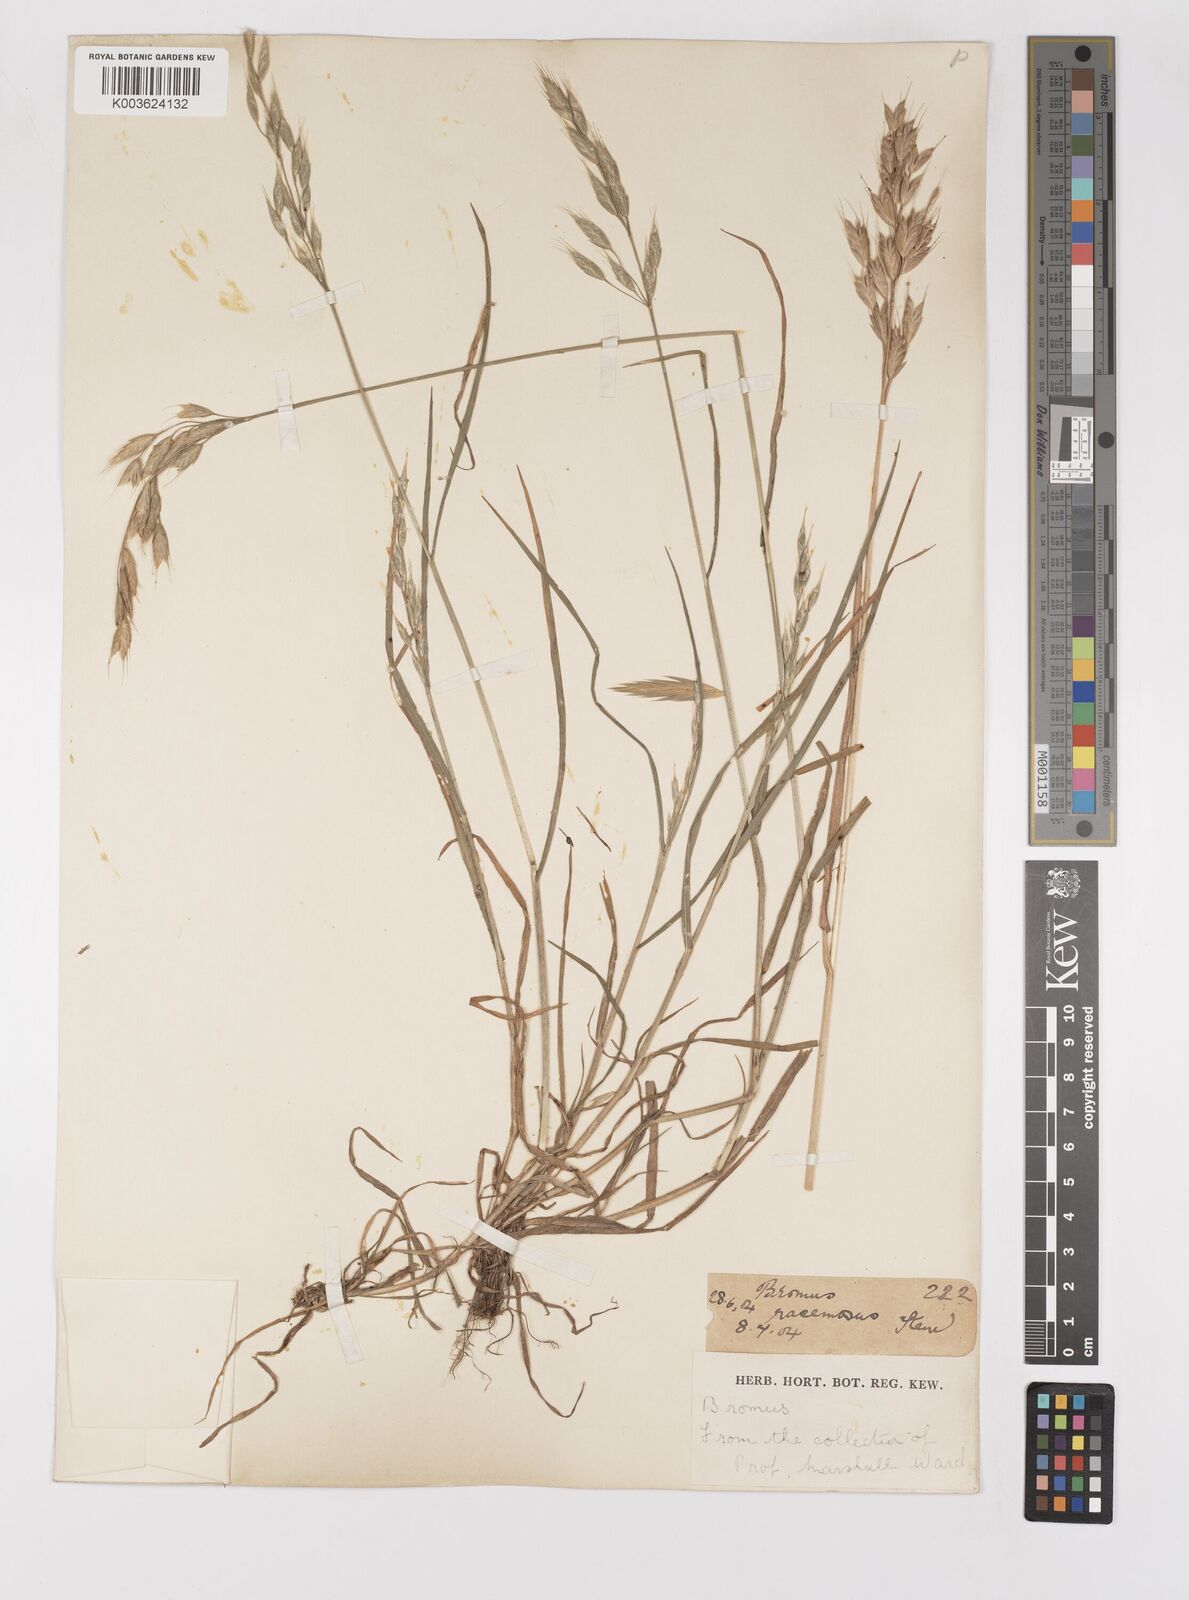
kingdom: Plantae
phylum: Tracheophyta
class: Liliopsida
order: Poales
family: Poaceae
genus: Bromus
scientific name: Bromus hordeaceus
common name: Soft brome
